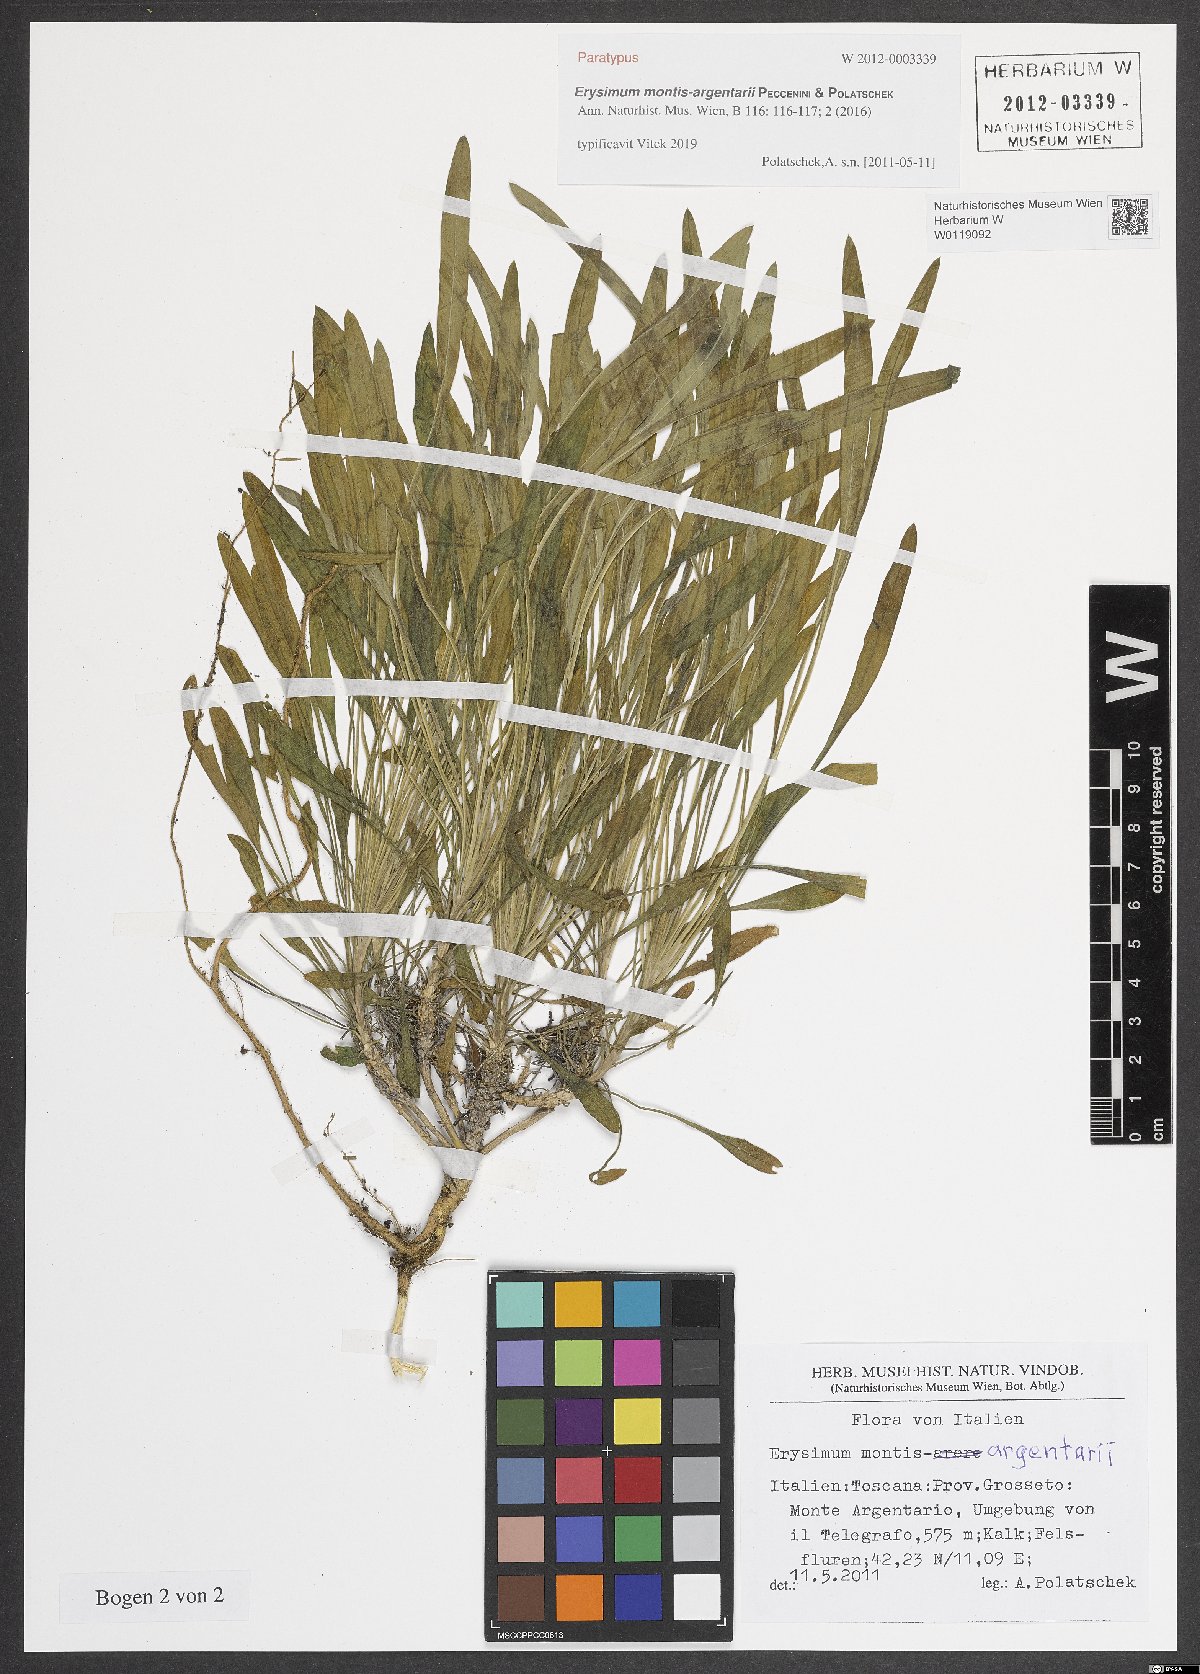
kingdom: Plantae
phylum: Tracheophyta
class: Magnoliopsida
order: Brassicales
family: Brassicaceae
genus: Erysimum
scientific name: Erysimum maremmanum
